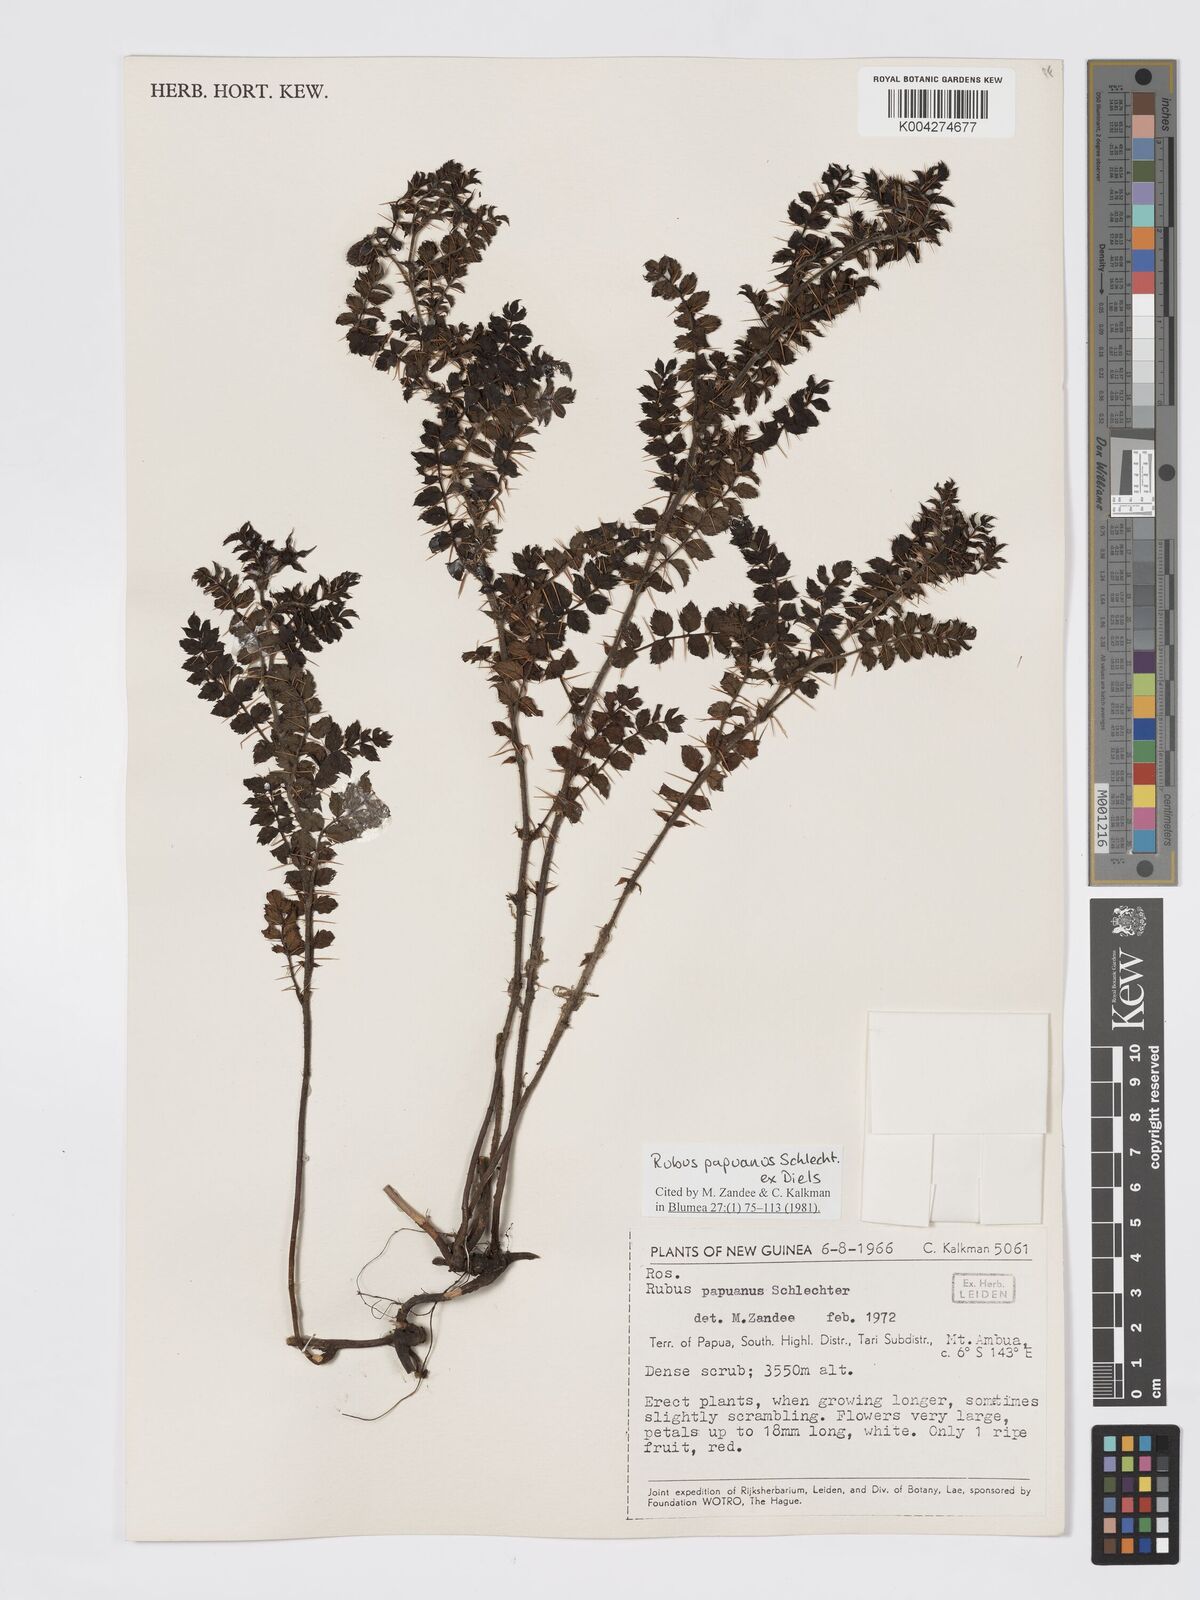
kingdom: Plantae
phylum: Tracheophyta
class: Magnoliopsida
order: Rosales
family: Rosaceae
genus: Rubus
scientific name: Rubus papuanus
